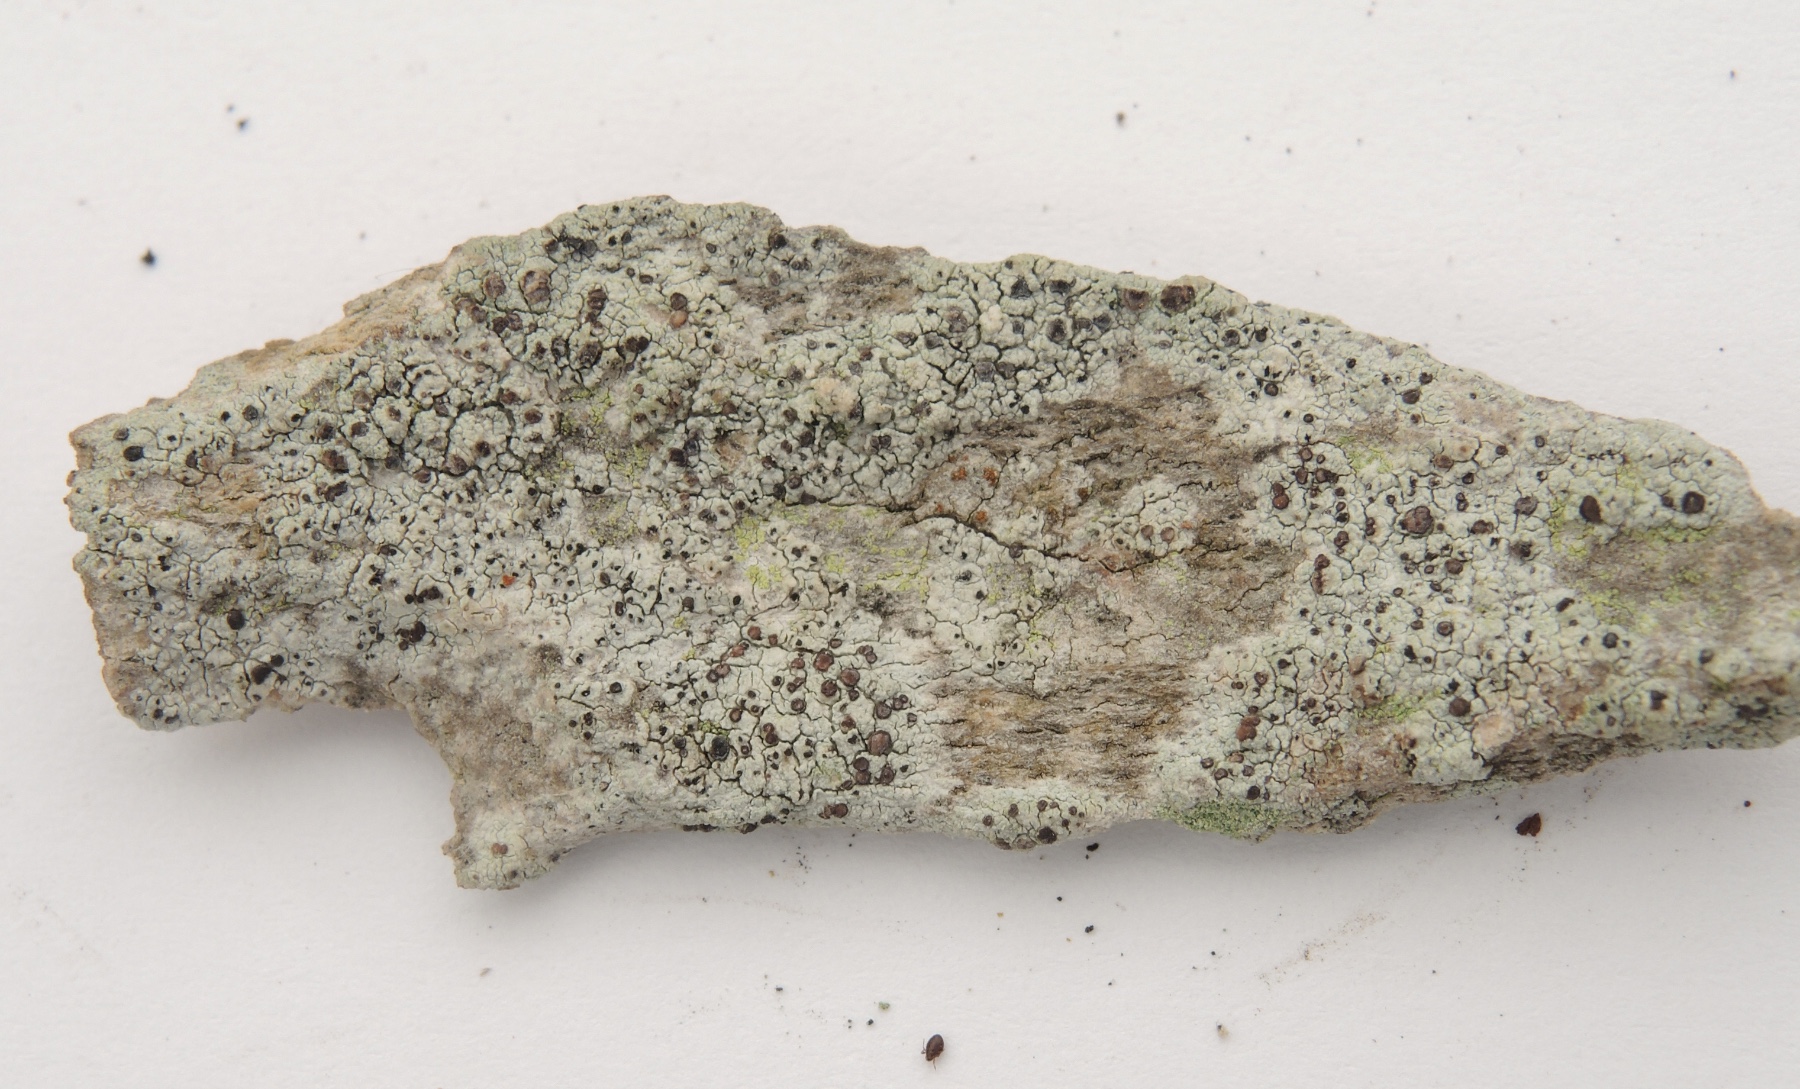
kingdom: Fungi
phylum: Ascomycota
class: Lecanoromycetes
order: Lecanorales
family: Ramalinaceae
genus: Cliostomum
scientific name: Cliostomum griffithii
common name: trefarvet tensporelav
